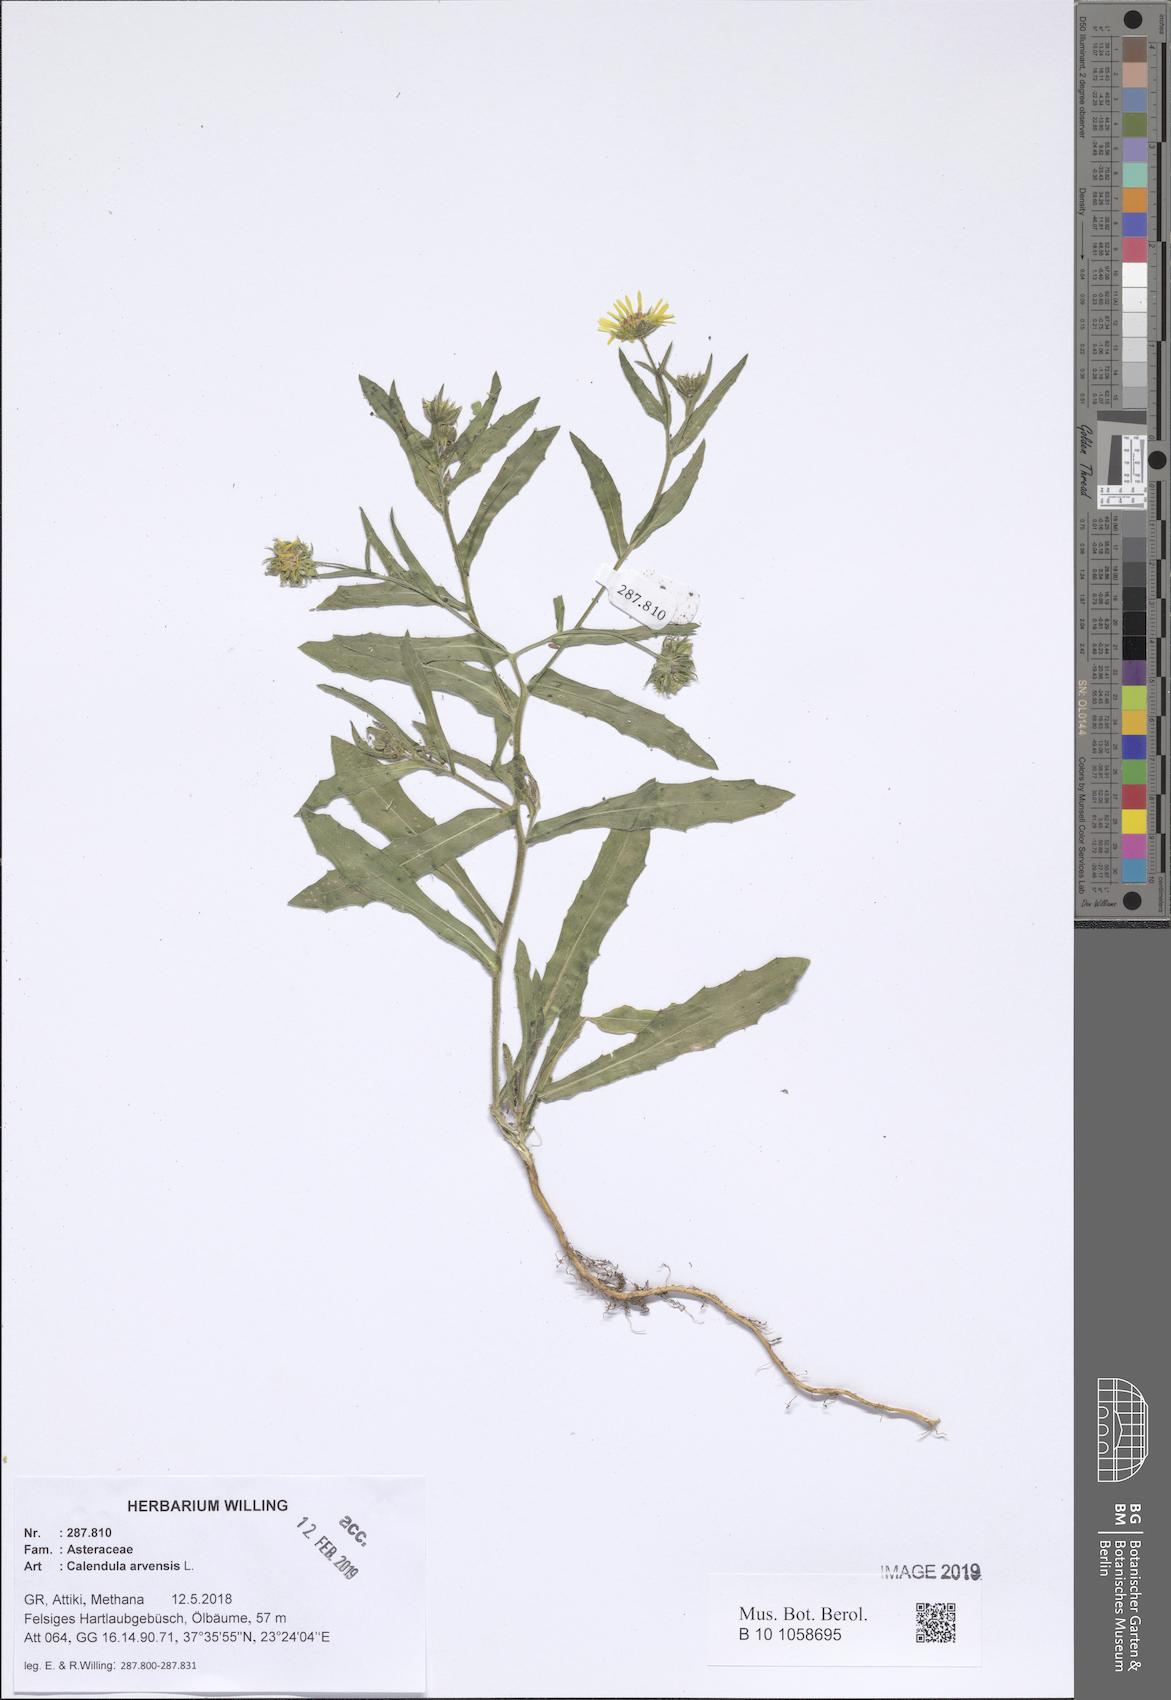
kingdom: Plantae
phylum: Tracheophyta
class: Magnoliopsida
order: Asterales
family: Asteraceae
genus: Calendula
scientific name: Calendula arvensis
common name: Field marigold
